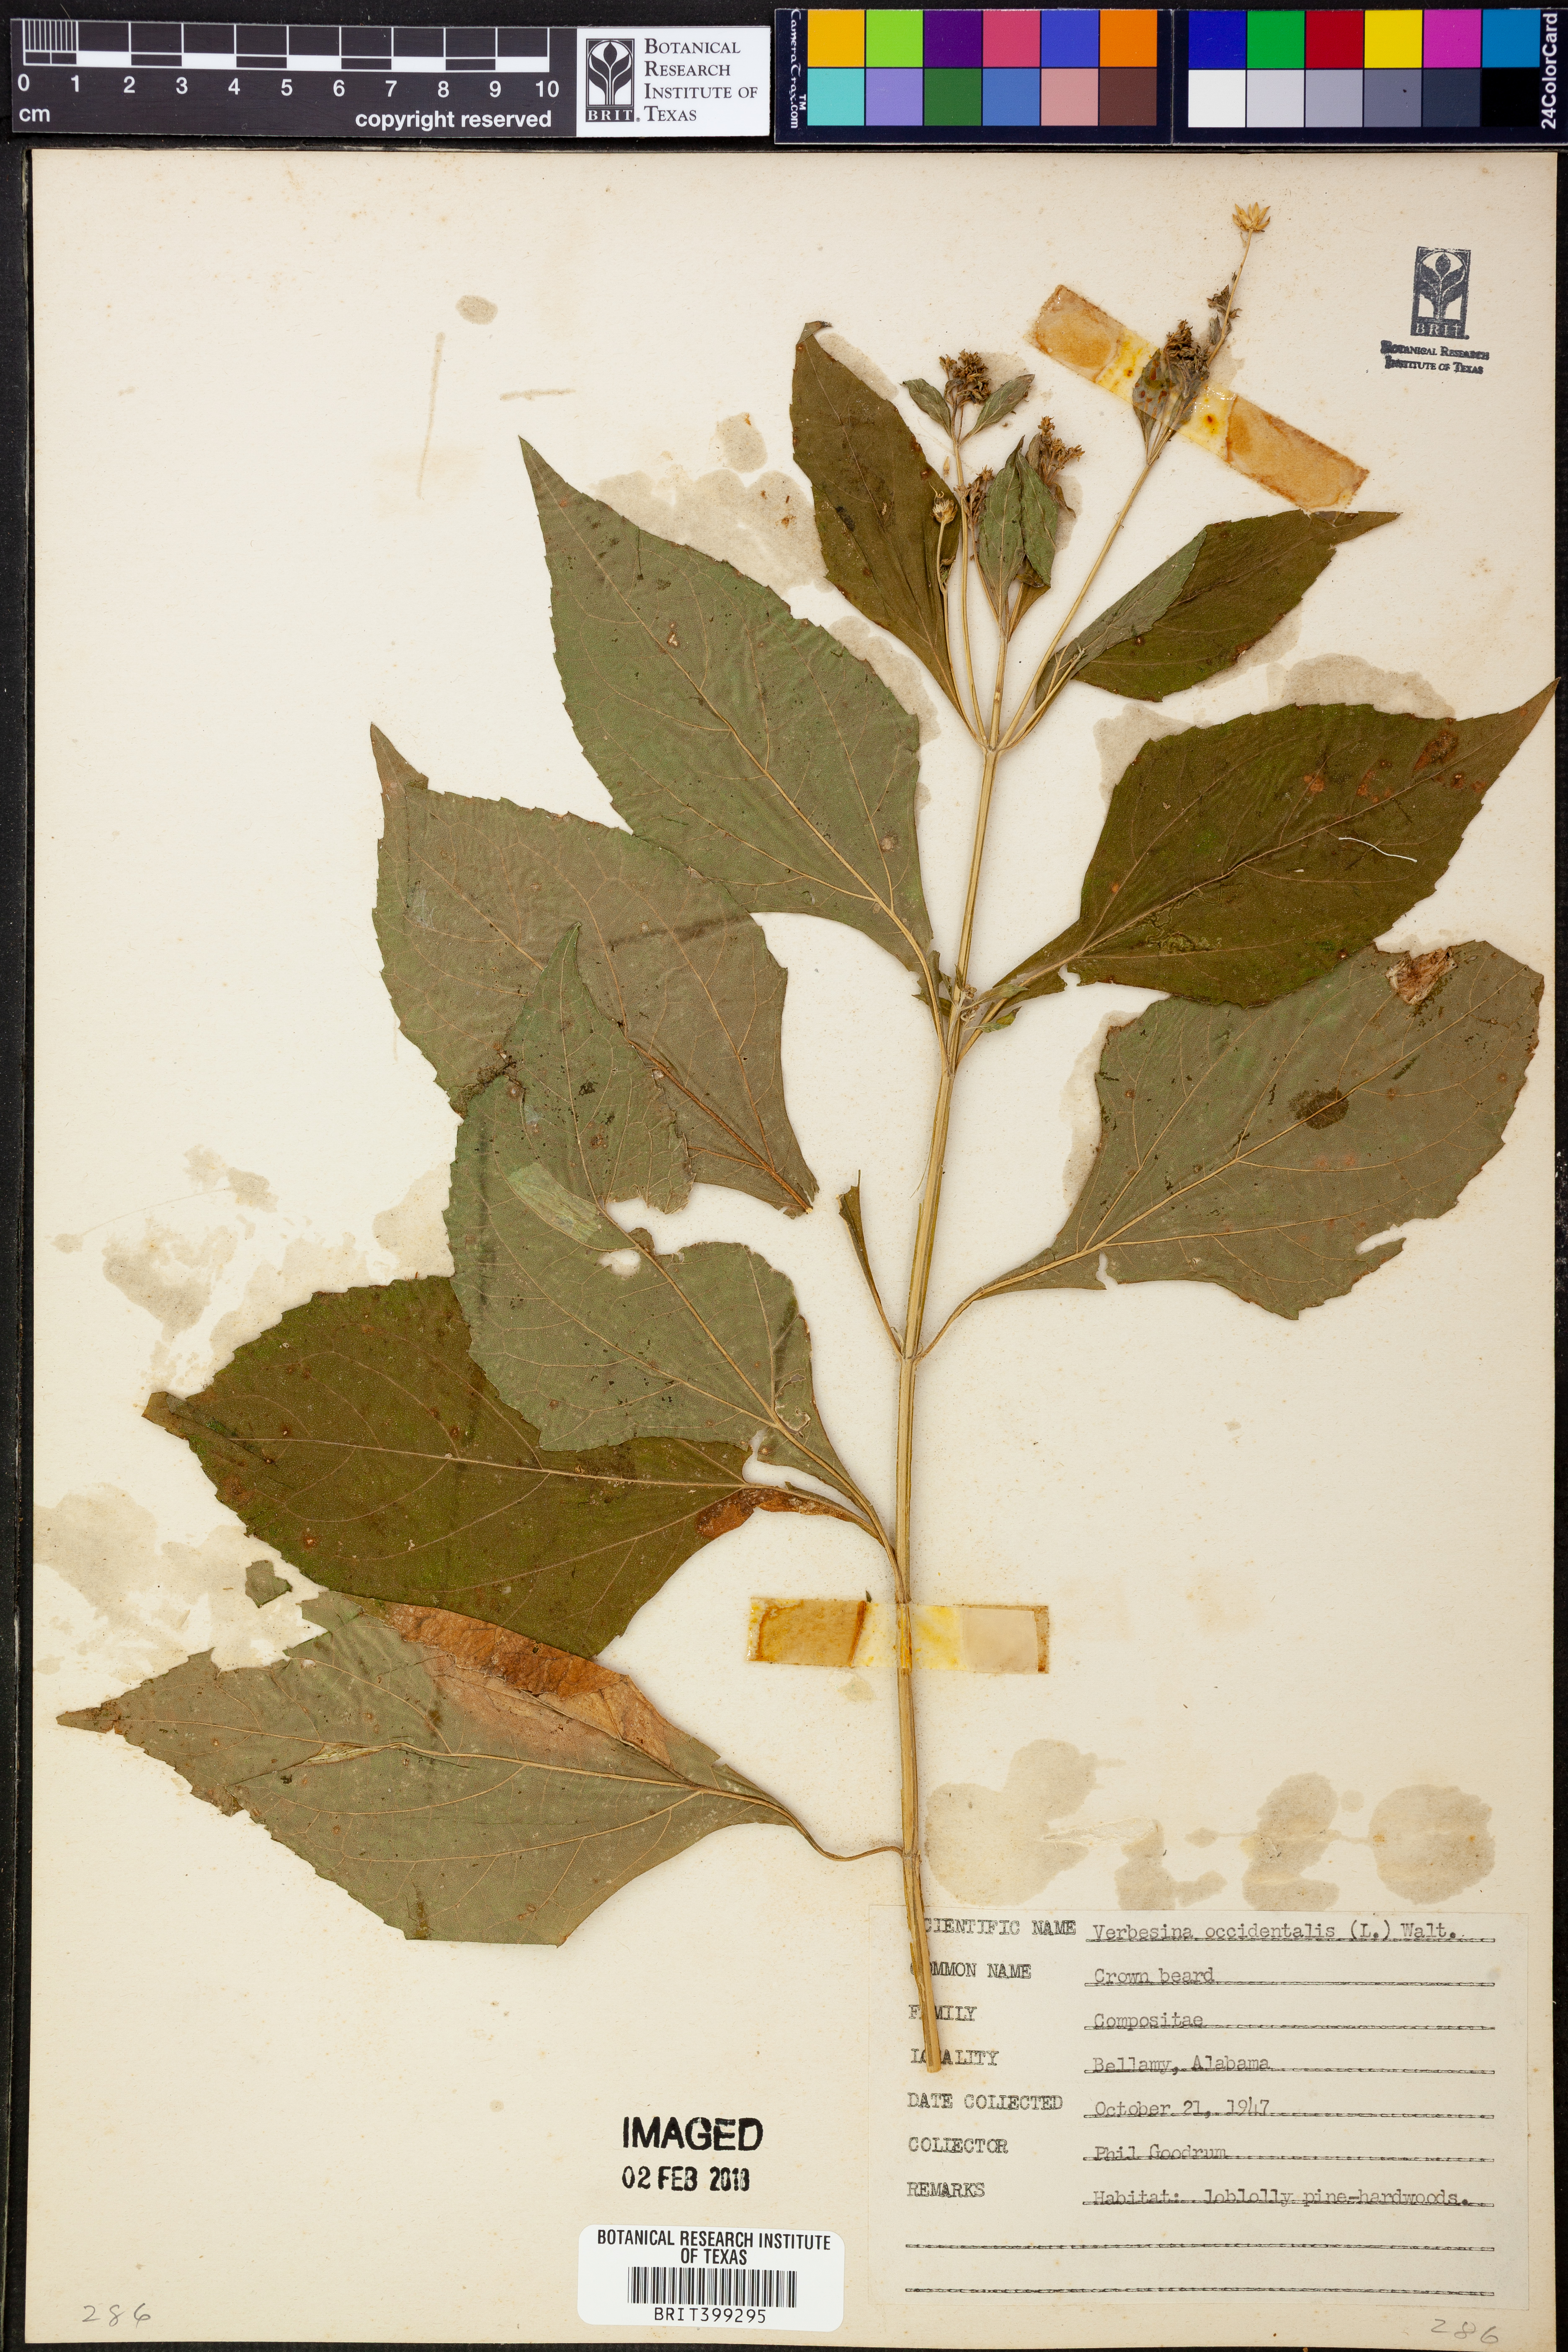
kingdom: Plantae
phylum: Tracheophyta
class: Magnoliopsida
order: Asterales
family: Asteraceae
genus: Verbesina
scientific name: Verbesina occidentalis
